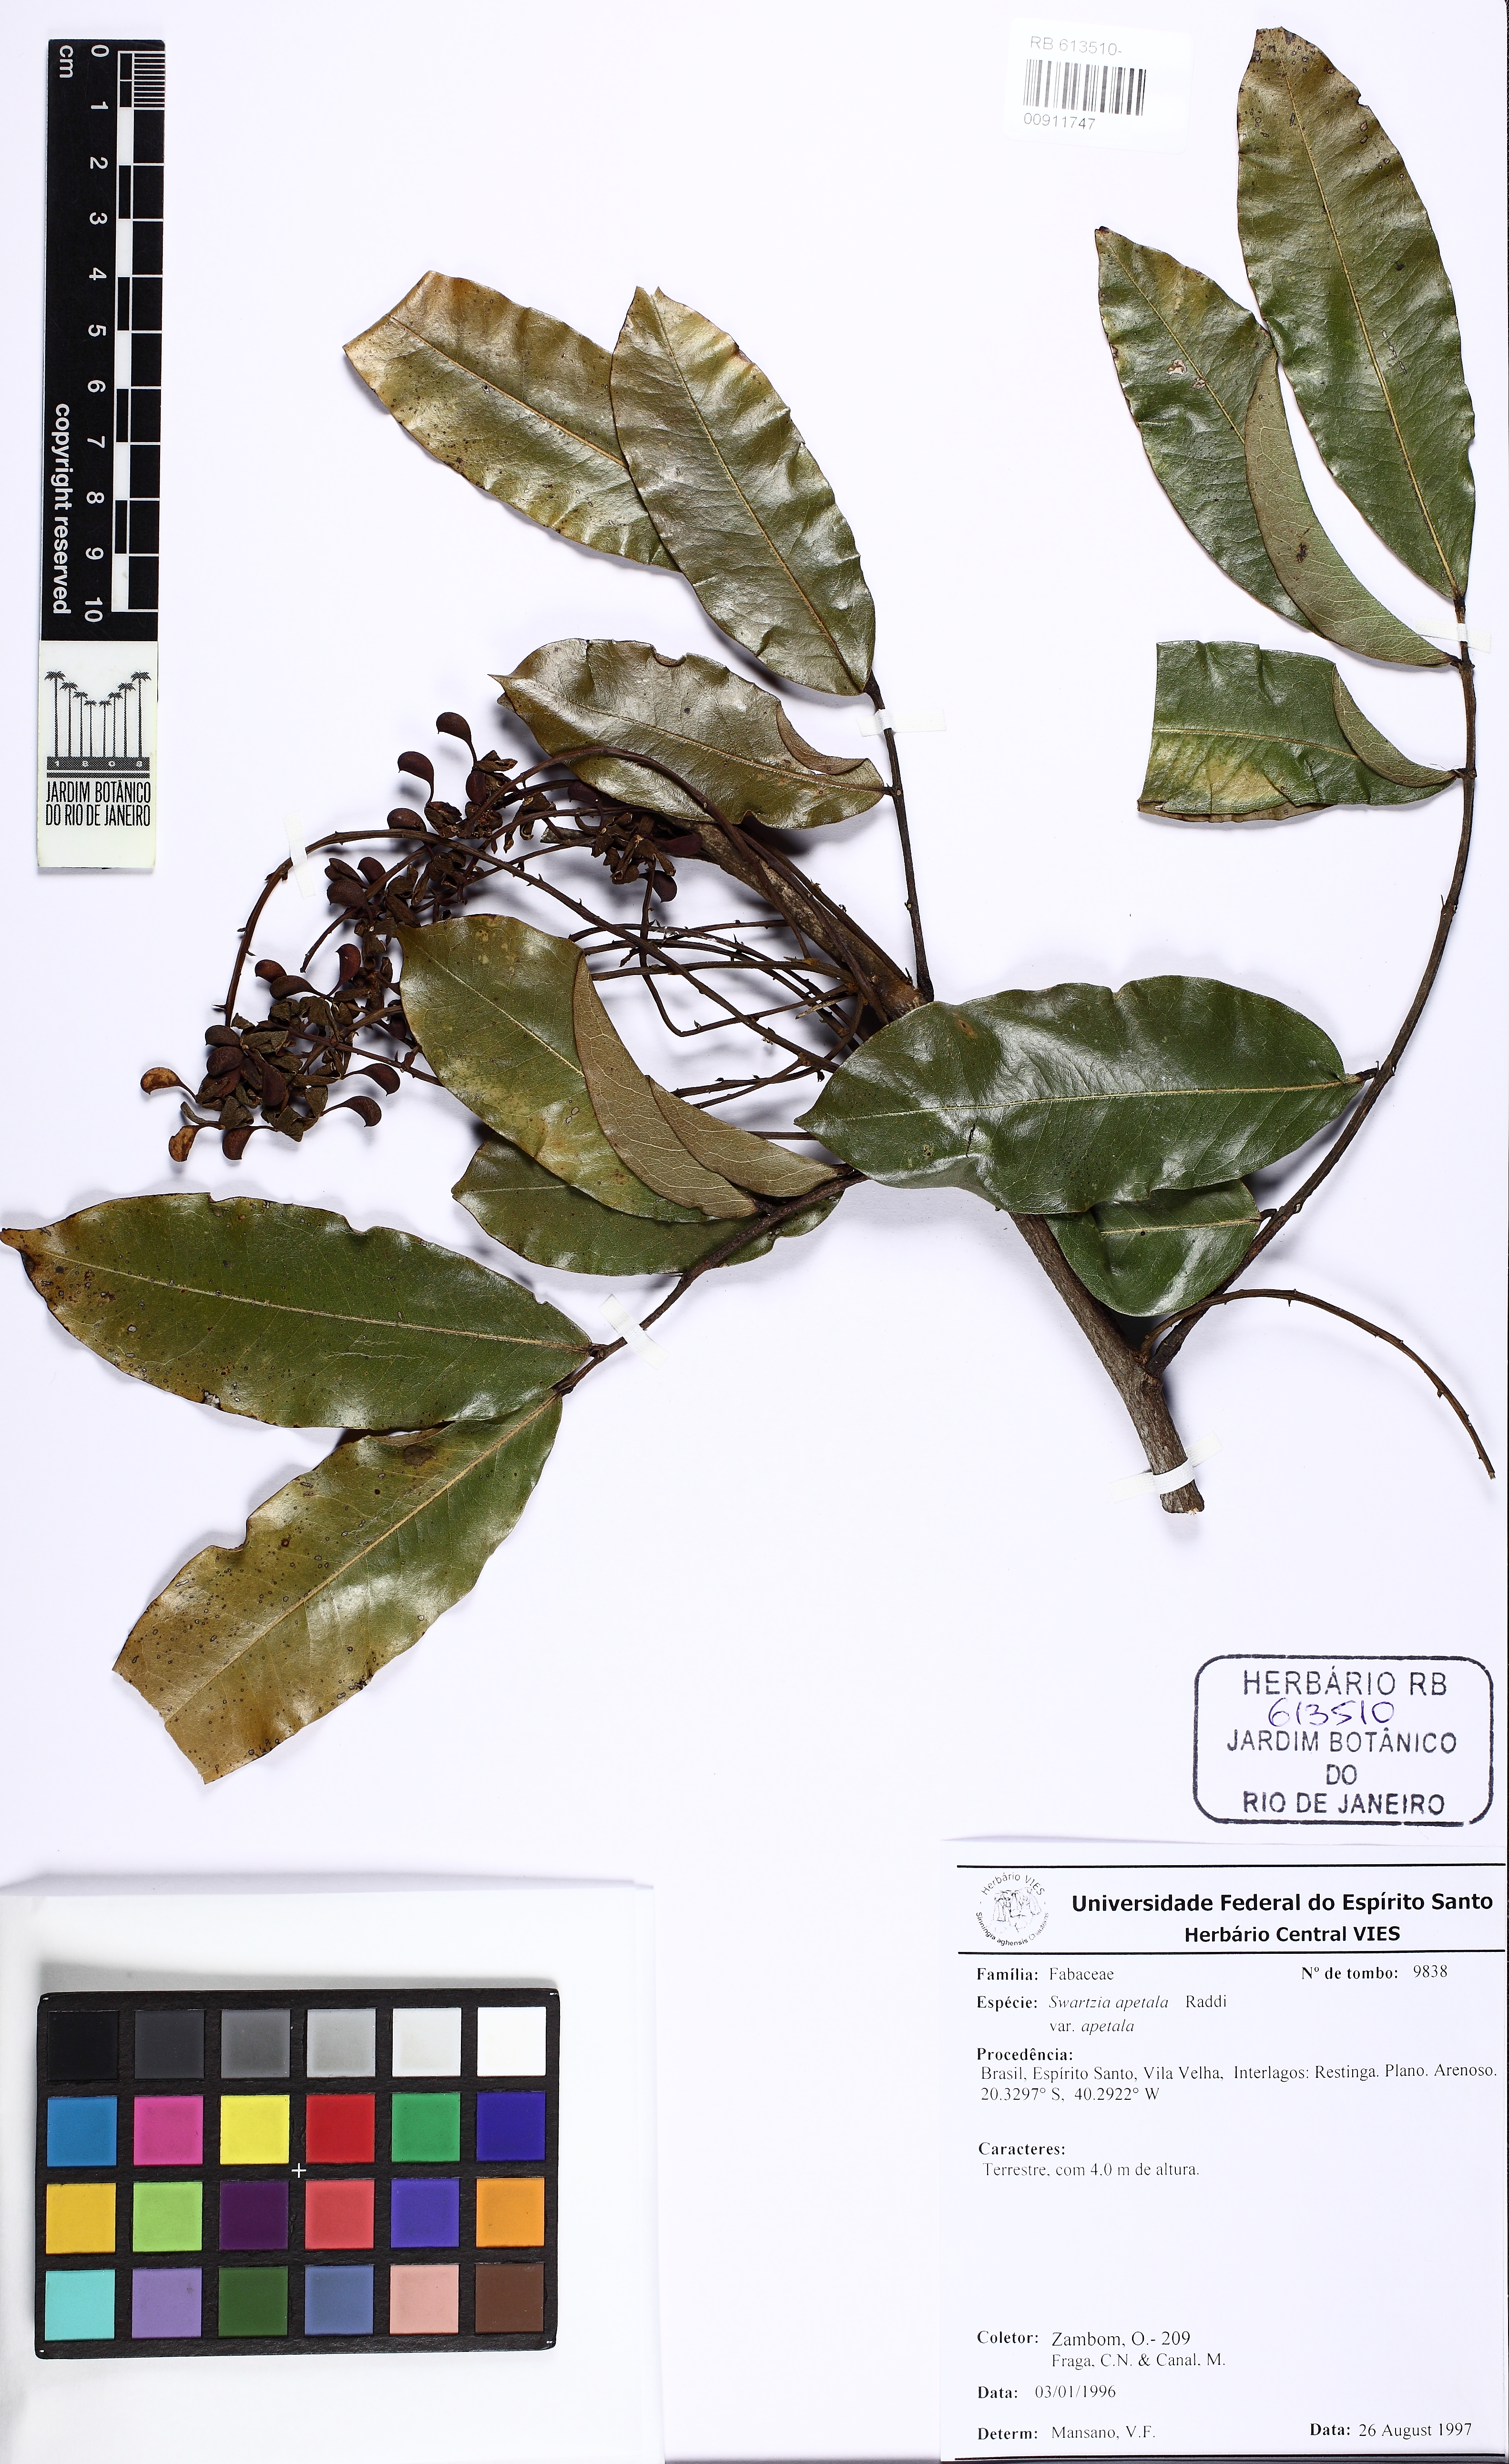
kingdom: Plantae
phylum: Tracheophyta
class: Magnoliopsida
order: Fabales
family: Fabaceae
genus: Swartzia
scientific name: Swartzia apetala
